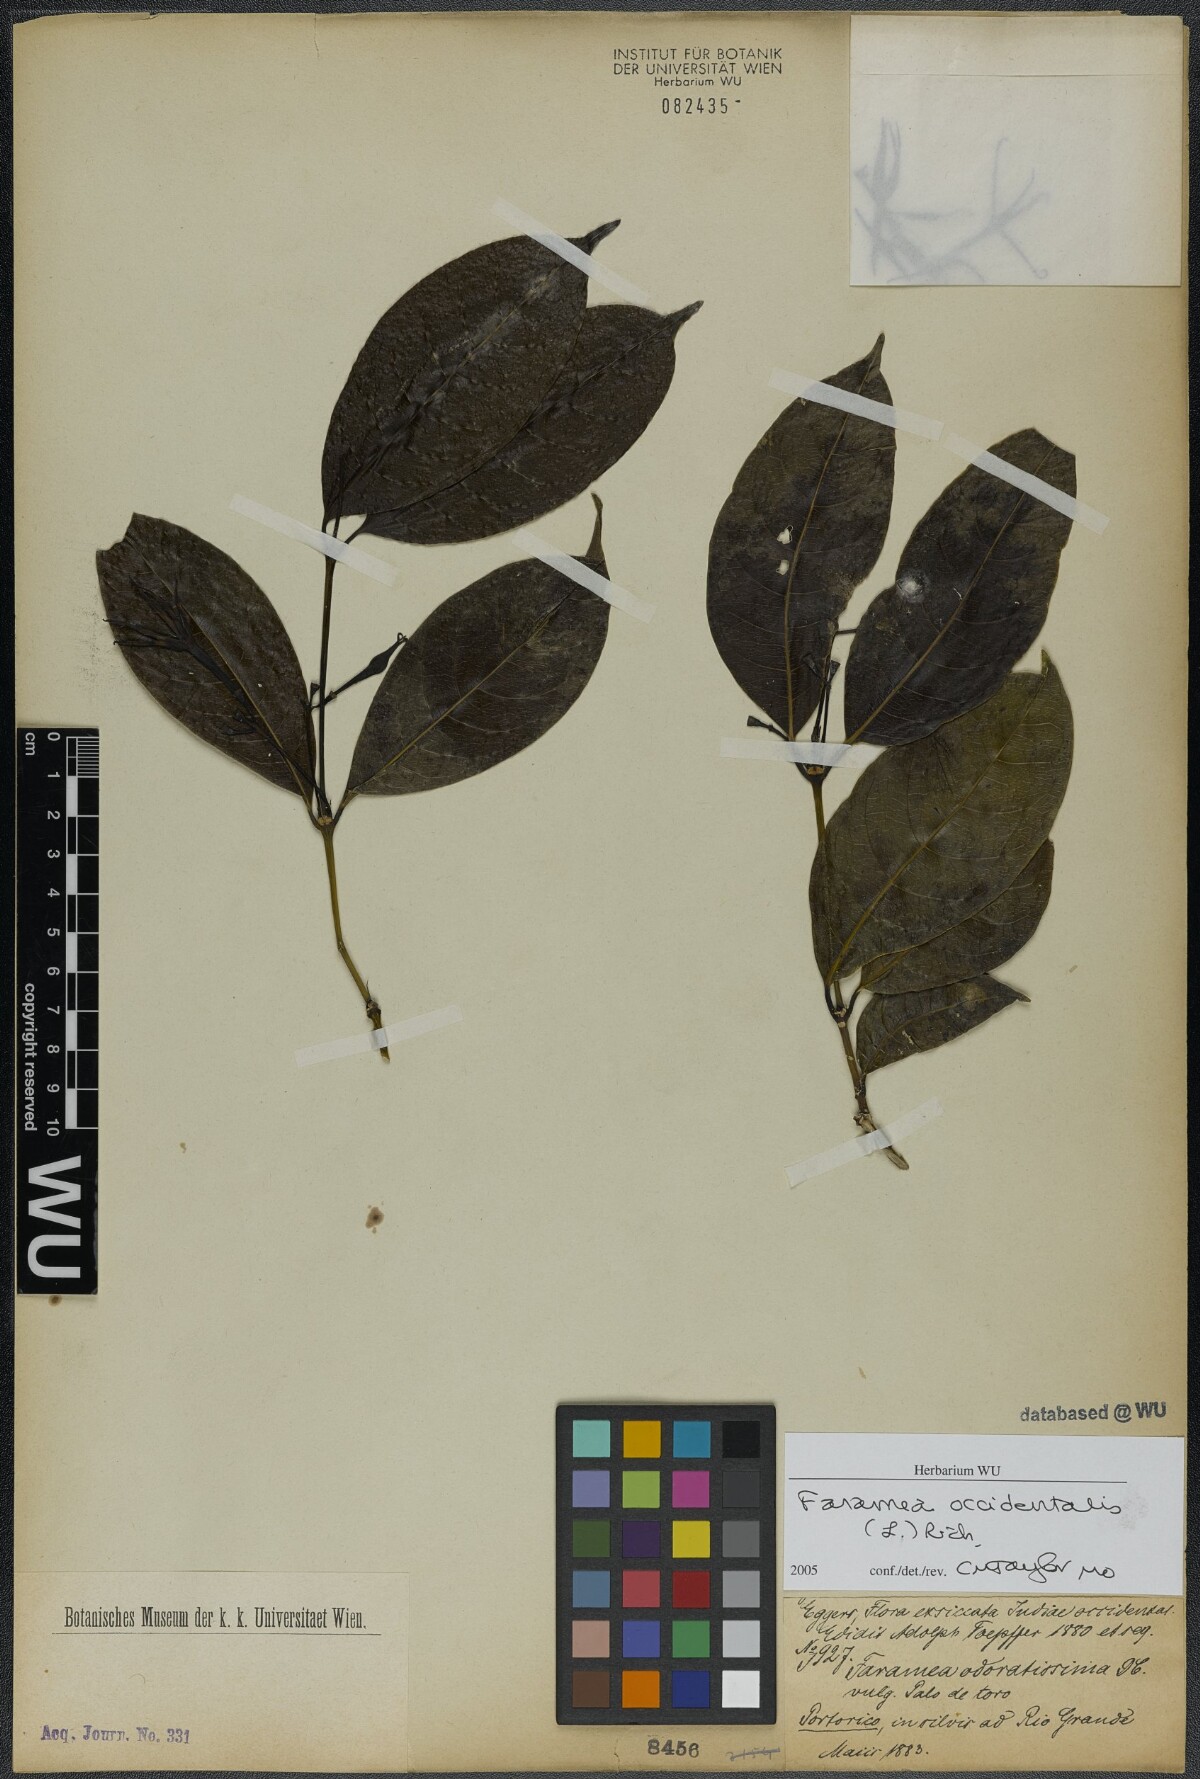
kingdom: Plantae
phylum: Tracheophyta
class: Magnoliopsida
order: Gentianales
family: Rubiaceae
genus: Faramea
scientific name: Faramea occidentalis
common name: False coffee
